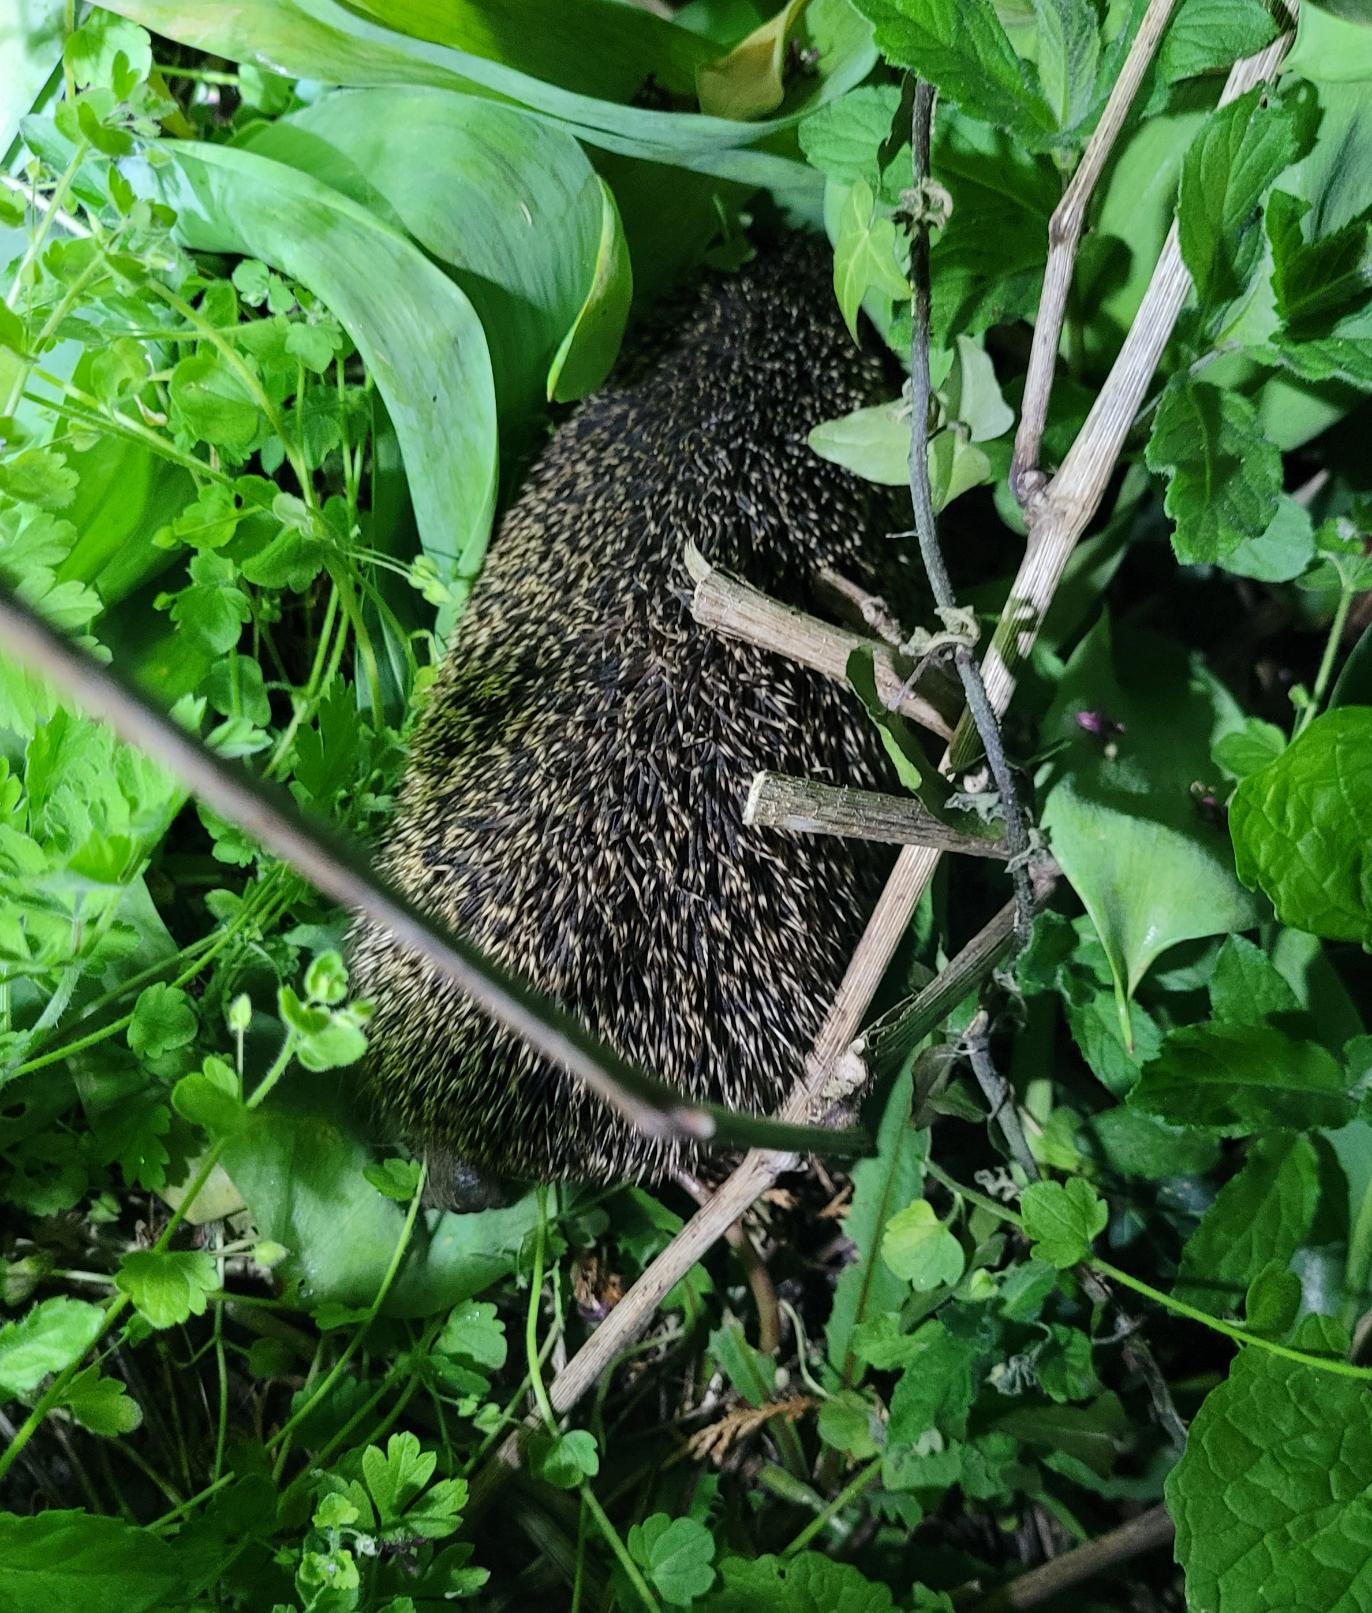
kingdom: Animalia
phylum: Chordata
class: Mammalia
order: Erinaceomorpha
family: Erinaceidae
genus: Erinaceus
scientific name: Erinaceus europaeus
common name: Pindsvin
